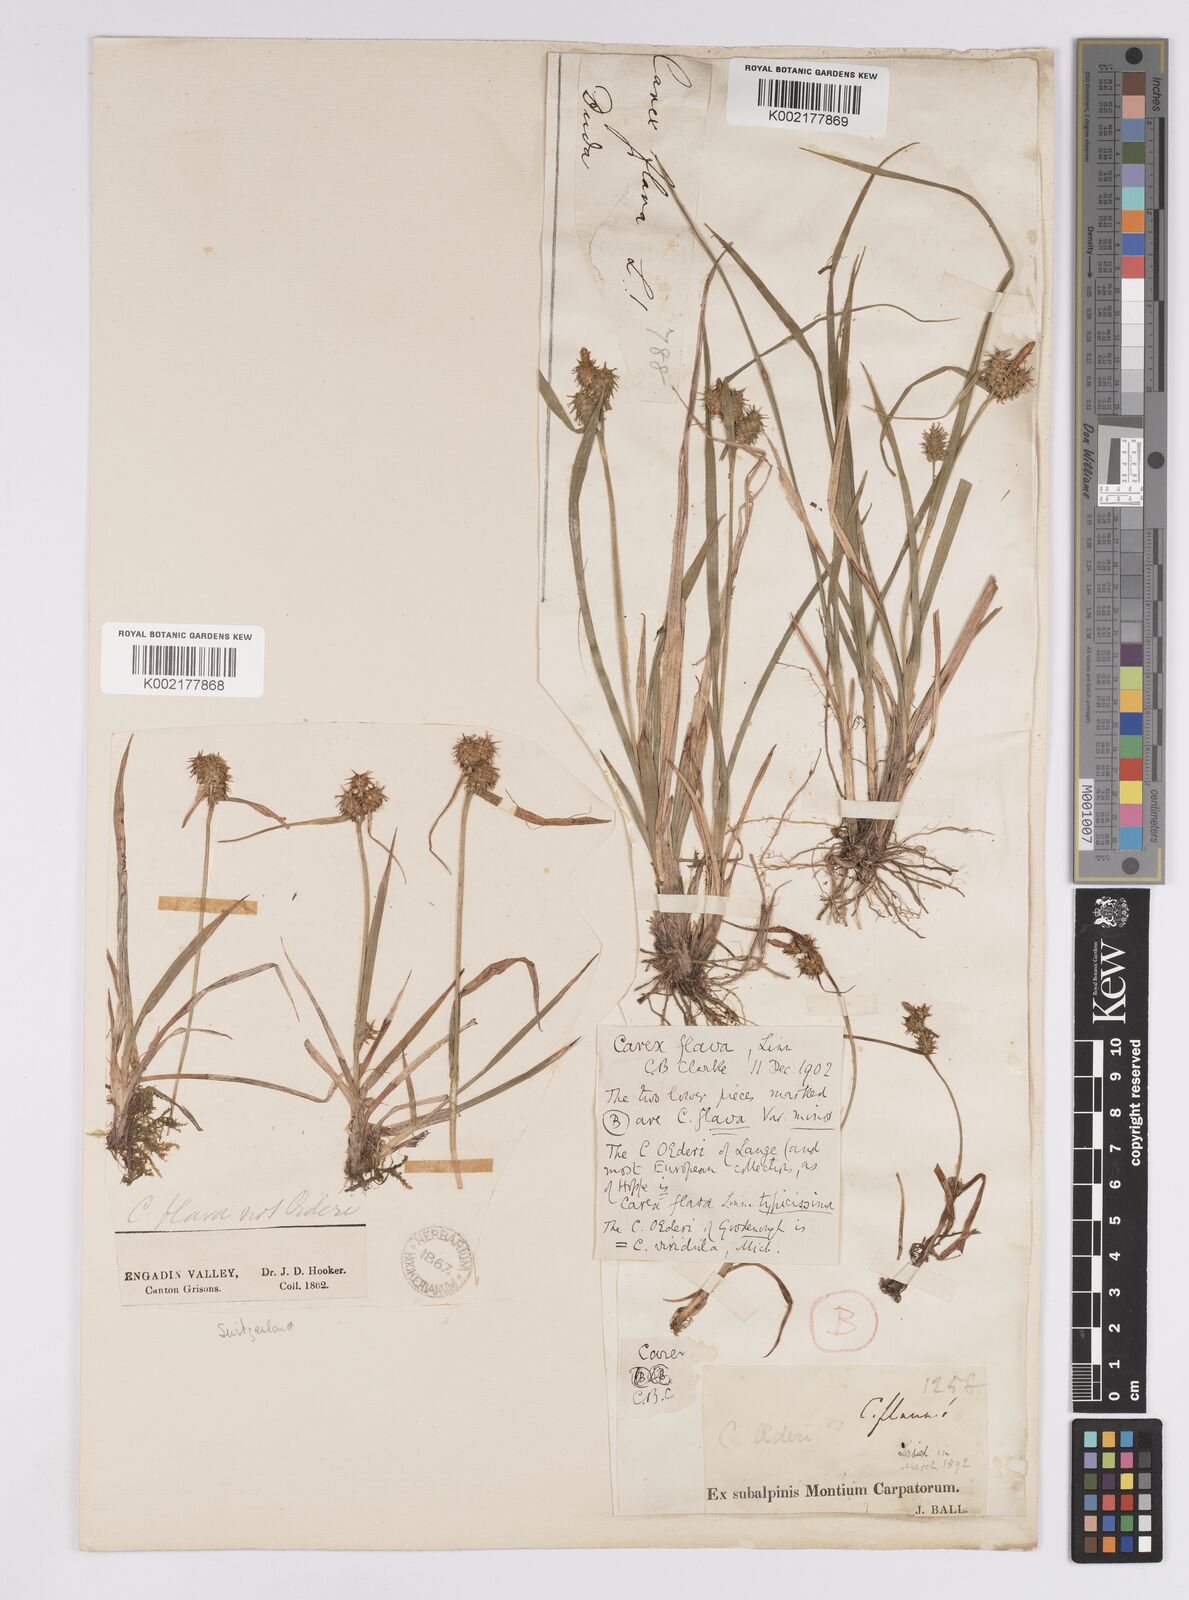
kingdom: Plantae
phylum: Tracheophyta
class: Liliopsida
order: Poales
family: Cyperaceae
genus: Carex
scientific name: Carex flava
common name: Large yellow-sedge
